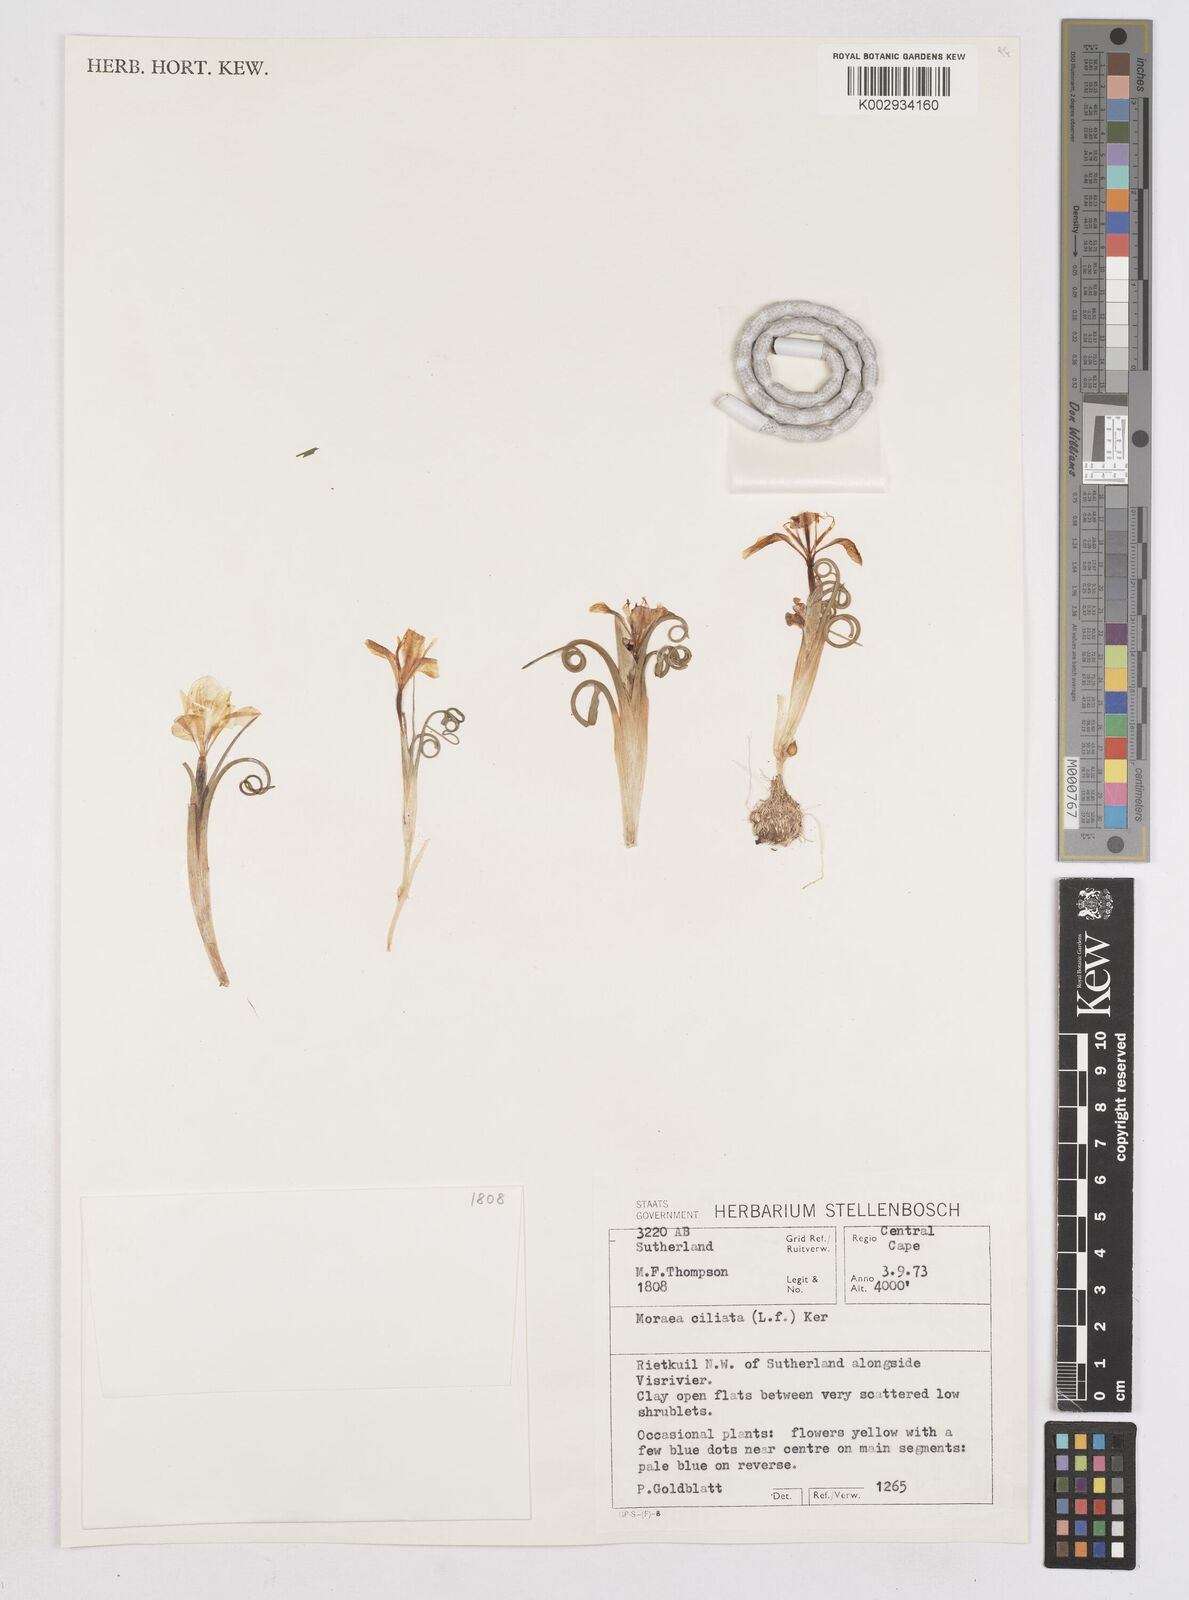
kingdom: Plantae
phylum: Tracheophyta
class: Liliopsida
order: Asparagales
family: Iridaceae
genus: Moraea
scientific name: Moraea ciliata
